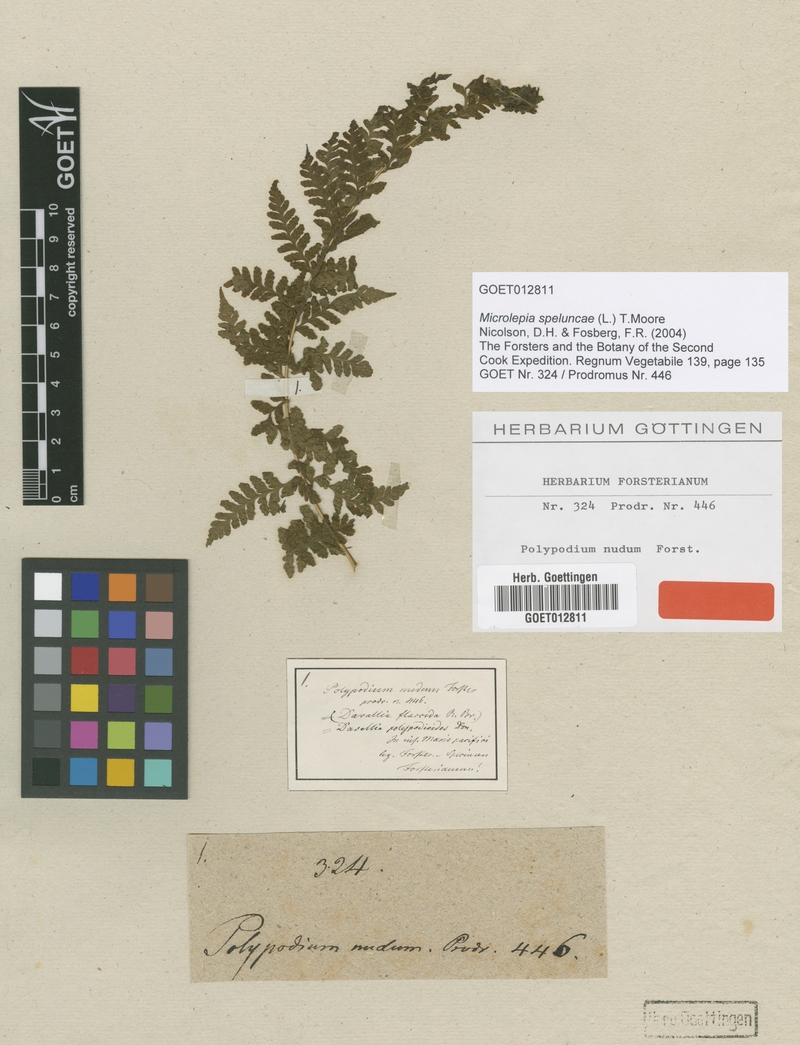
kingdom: Plantae
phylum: Tracheophyta
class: Polypodiopsida
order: Polypodiales
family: Dennstaedtiaceae
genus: Microlepia
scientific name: Microlepia speluncae
